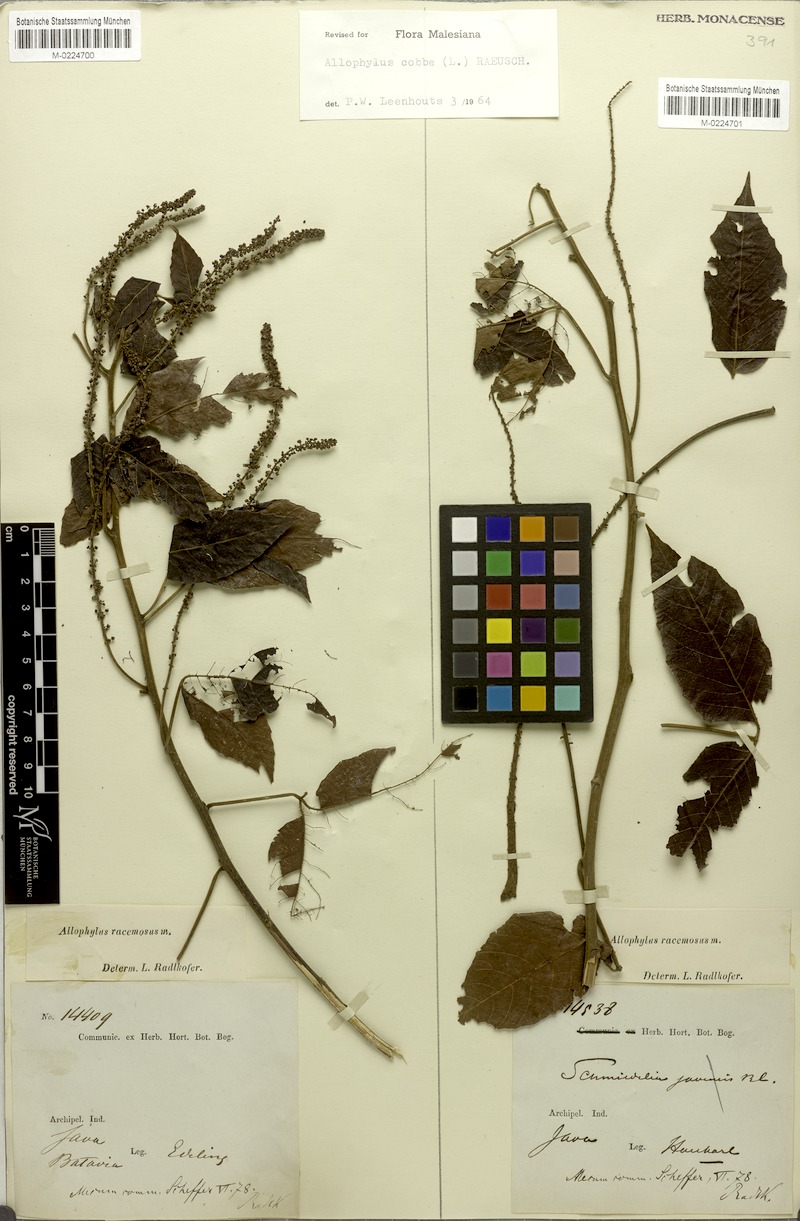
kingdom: Plantae
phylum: Tracheophyta
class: Magnoliopsida
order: Sapindales
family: Sapindaceae
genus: Allophylus
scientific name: Allophylus racemosus
